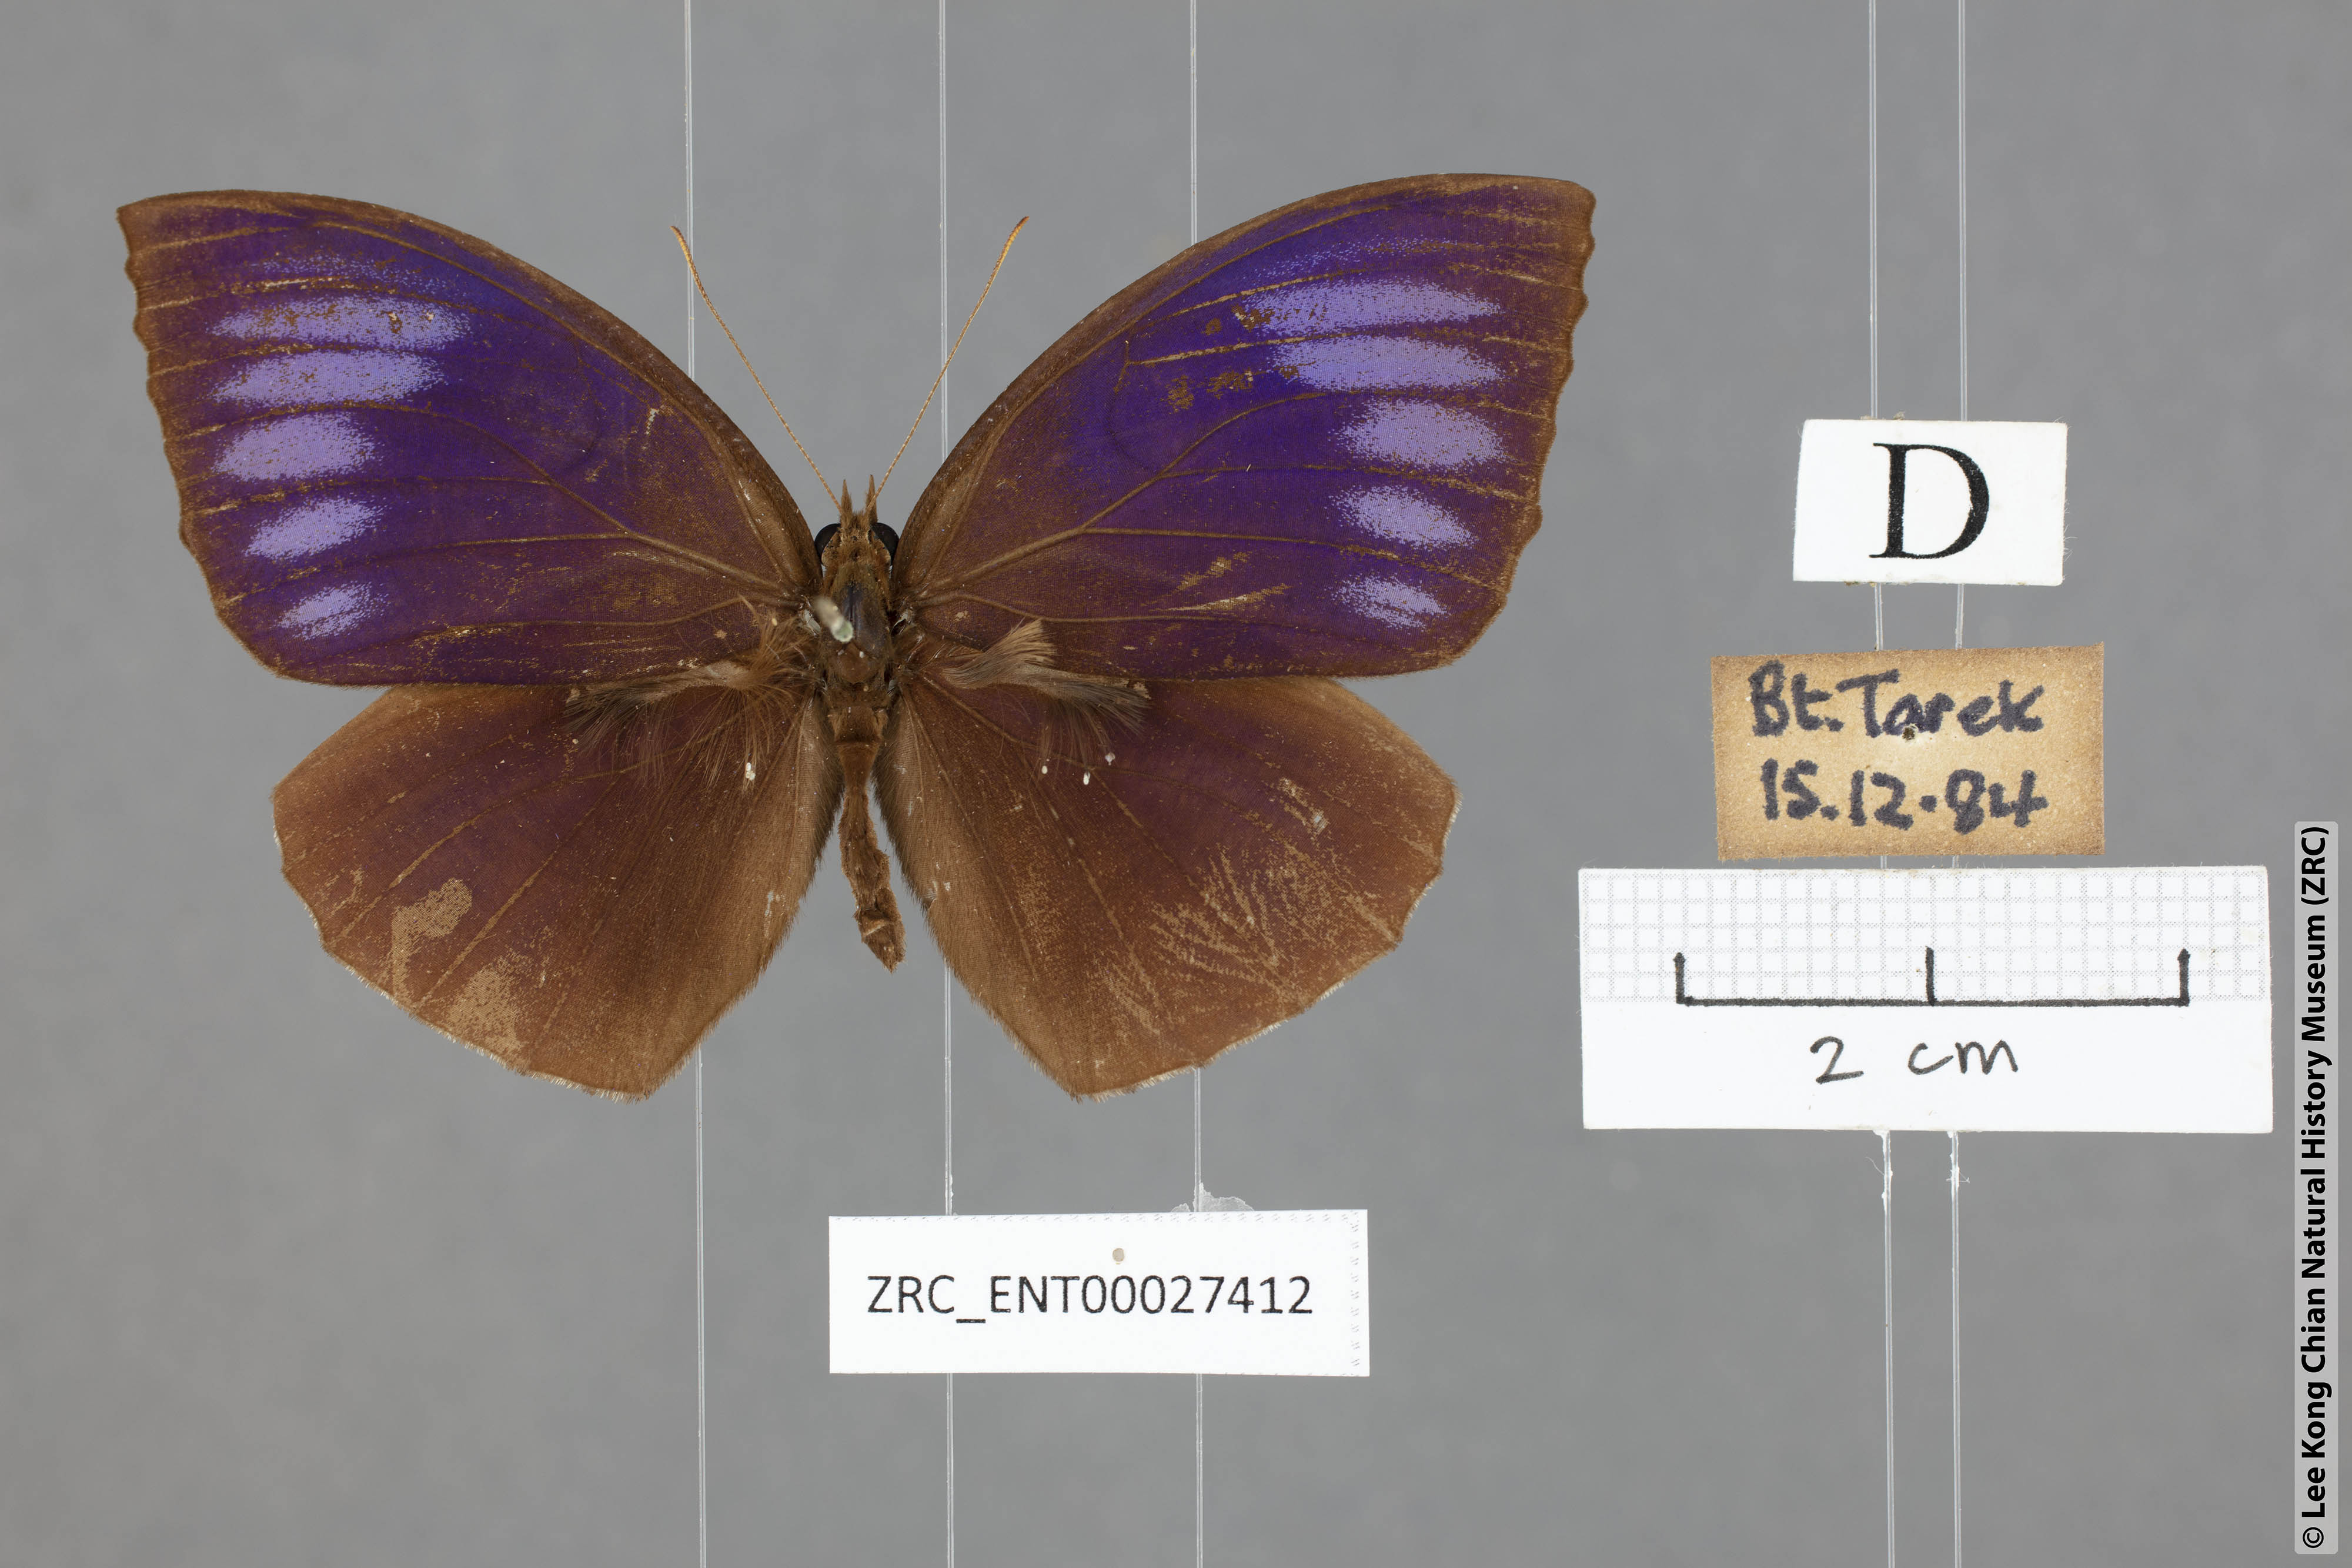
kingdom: Animalia
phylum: Arthropoda
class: Insecta
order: Lepidoptera
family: Nymphalidae
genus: Elymnias
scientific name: Elymnias penanga
